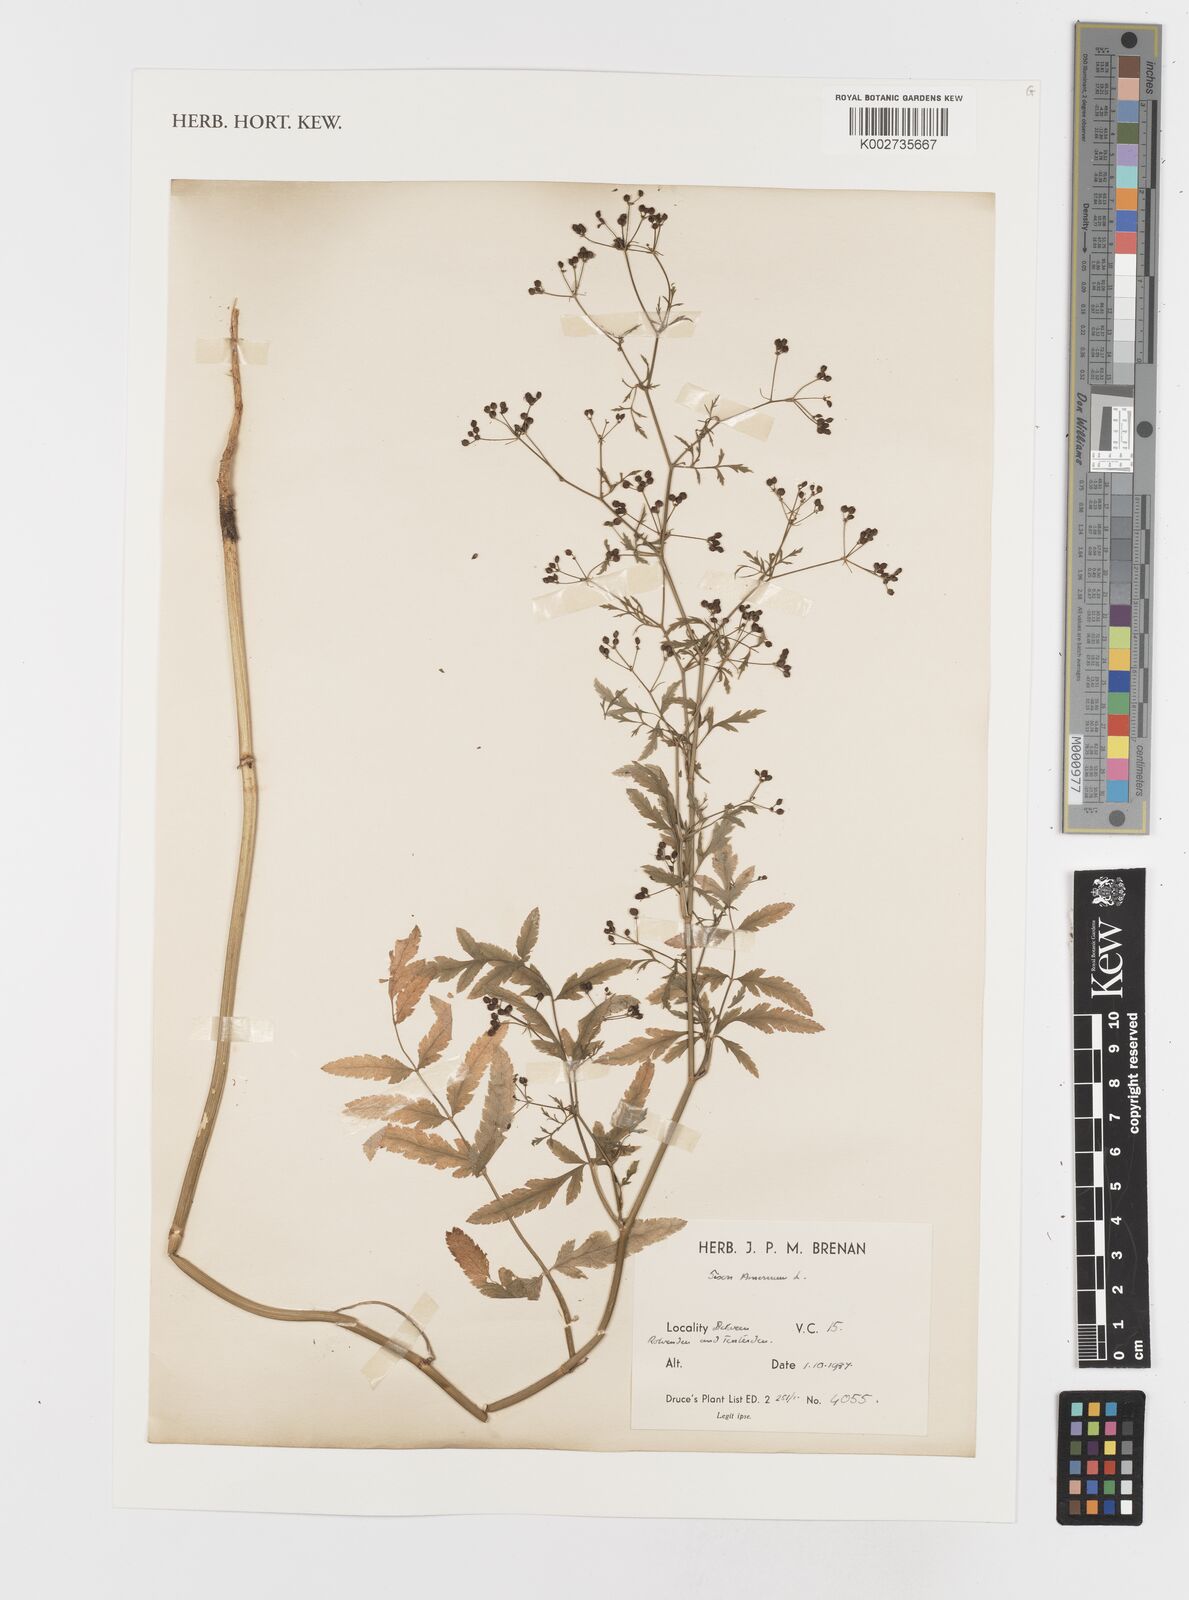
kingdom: Plantae
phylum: Tracheophyta
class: Magnoliopsida
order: Apiales
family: Apiaceae
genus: Sison
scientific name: Sison amomum
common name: Stone-parsley
